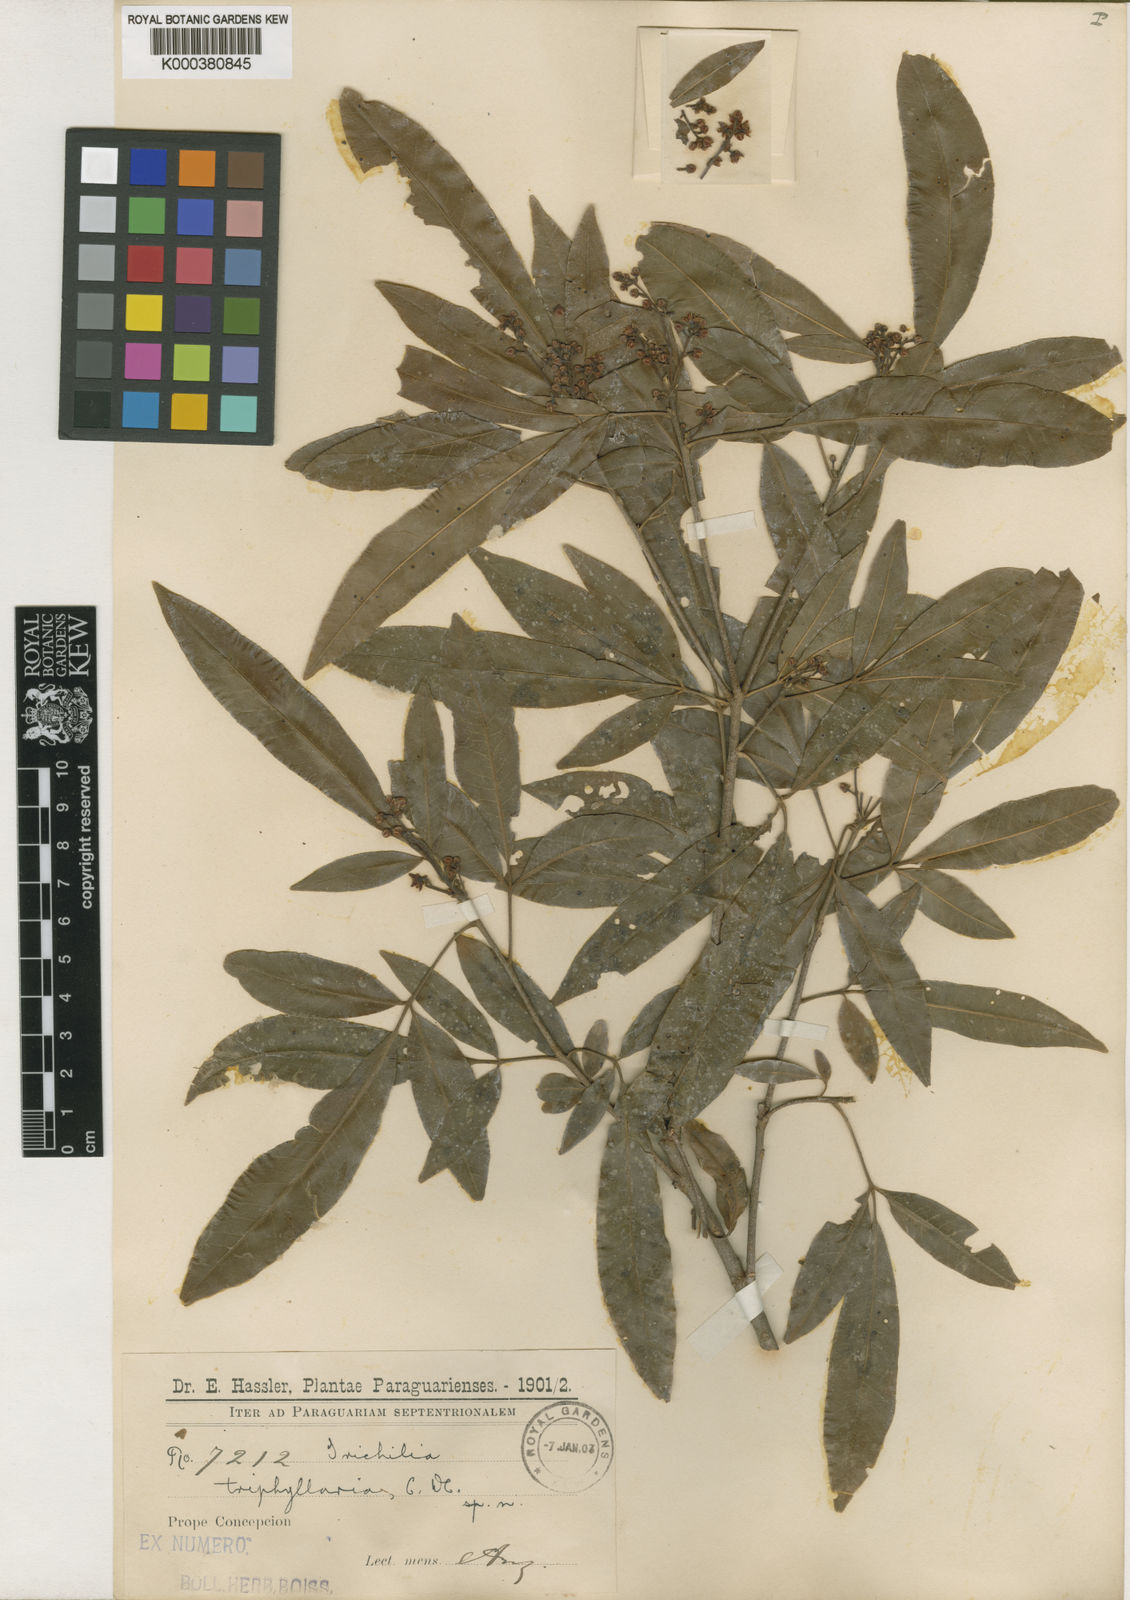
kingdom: Plantae
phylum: Tracheophyta
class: Magnoliopsida
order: Sapindales
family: Meliaceae
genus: Trichilia
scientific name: Trichilia claussenii
